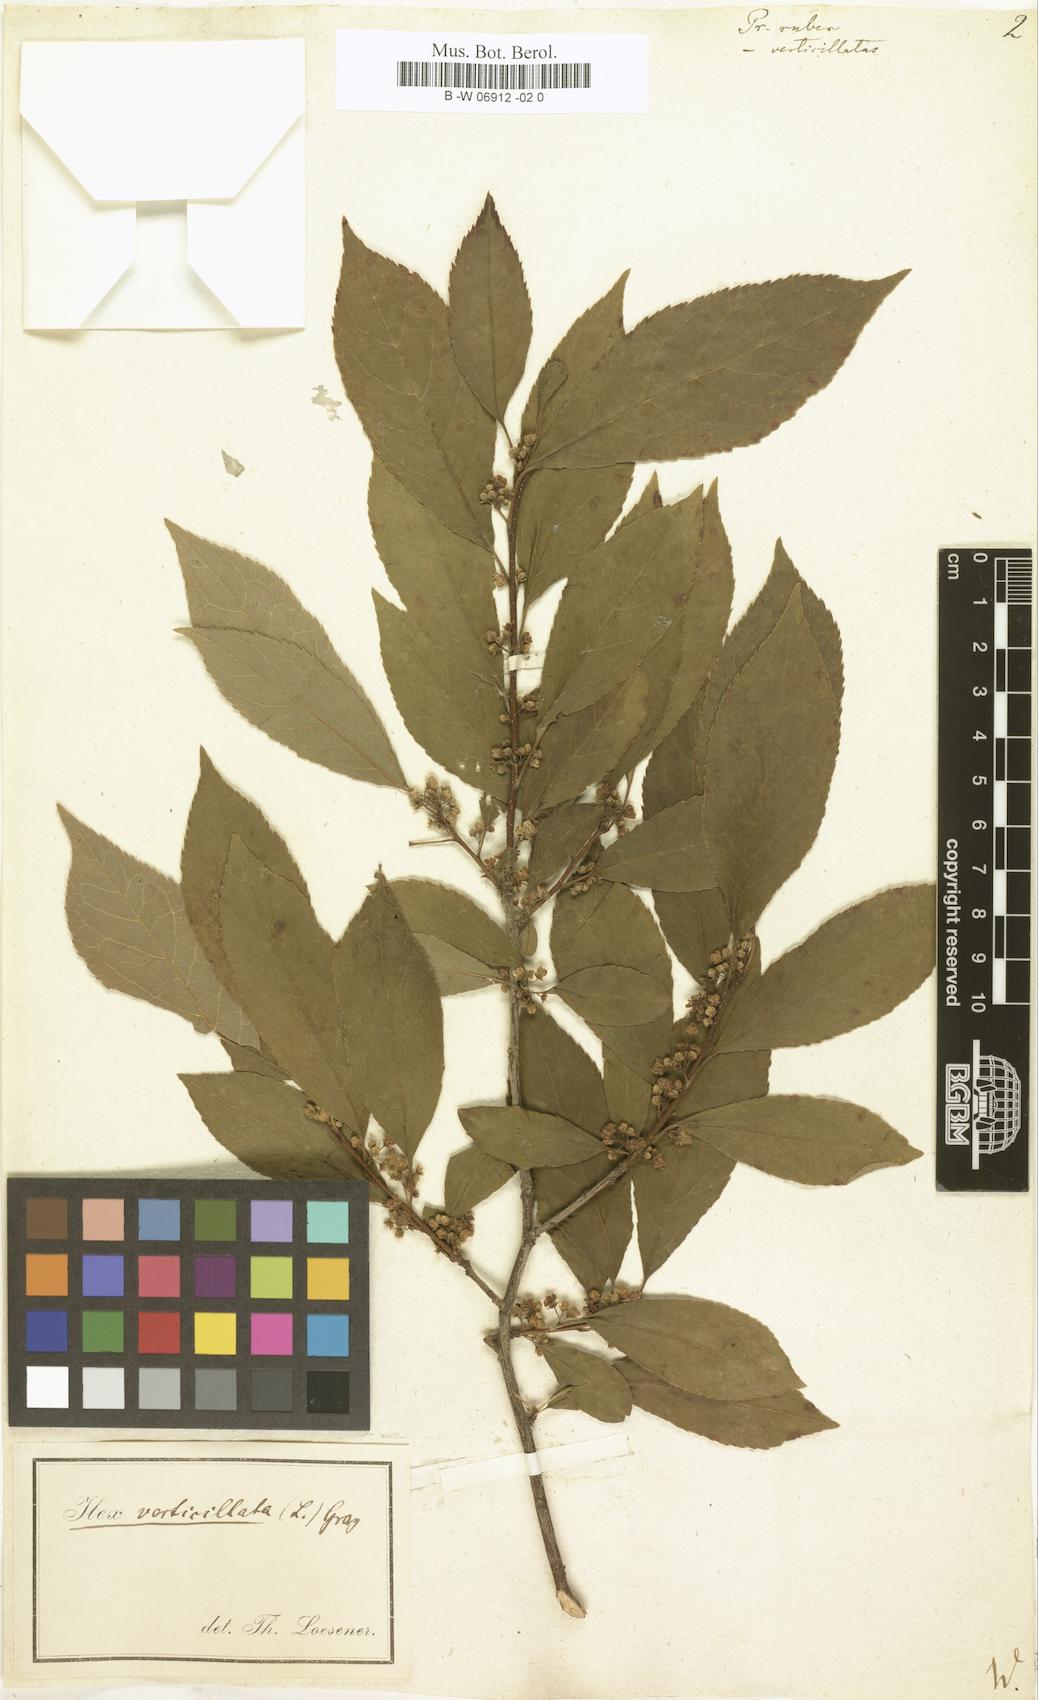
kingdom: Plantae
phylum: Tracheophyta
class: Magnoliopsida
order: Aquifoliales
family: Aquifoliaceae
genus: Ilex
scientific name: Ilex
